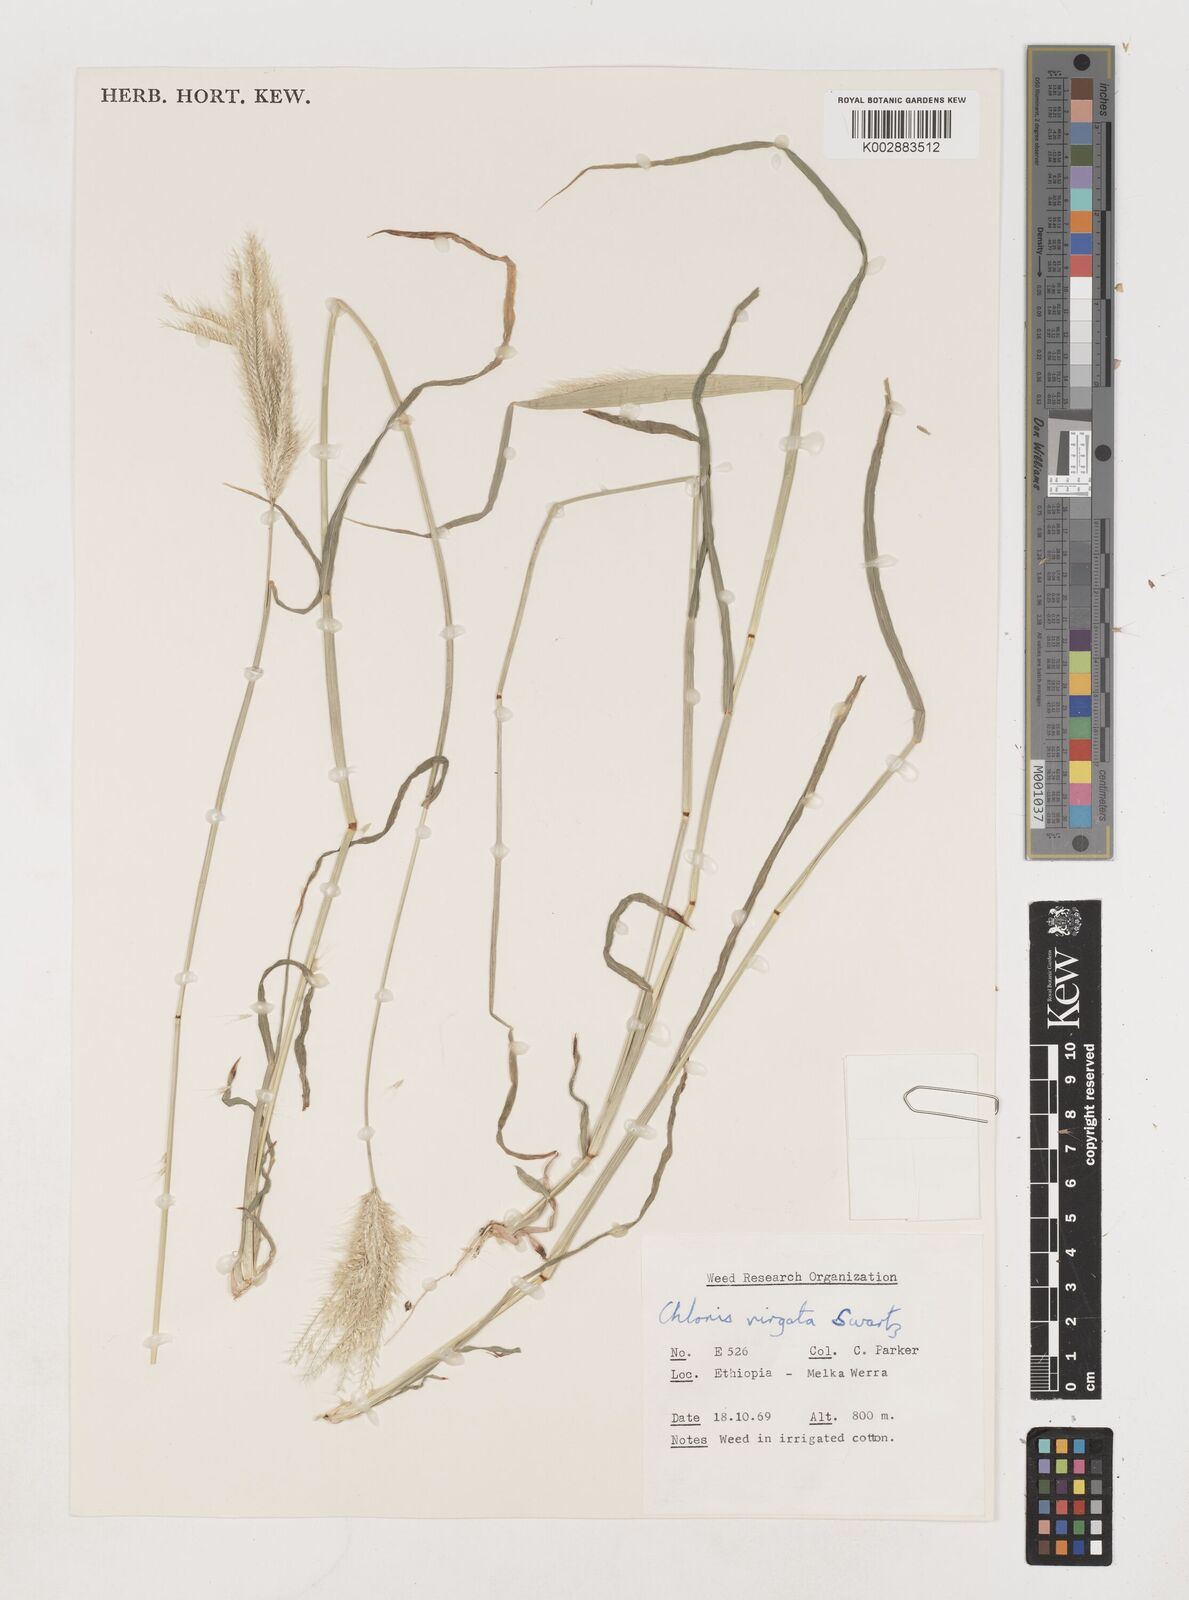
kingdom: Plantae
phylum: Tracheophyta
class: Liliopsida
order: Poales
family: Poaceae
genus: Chloris
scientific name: Chloris virgata
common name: Feathery rhodes-grass
